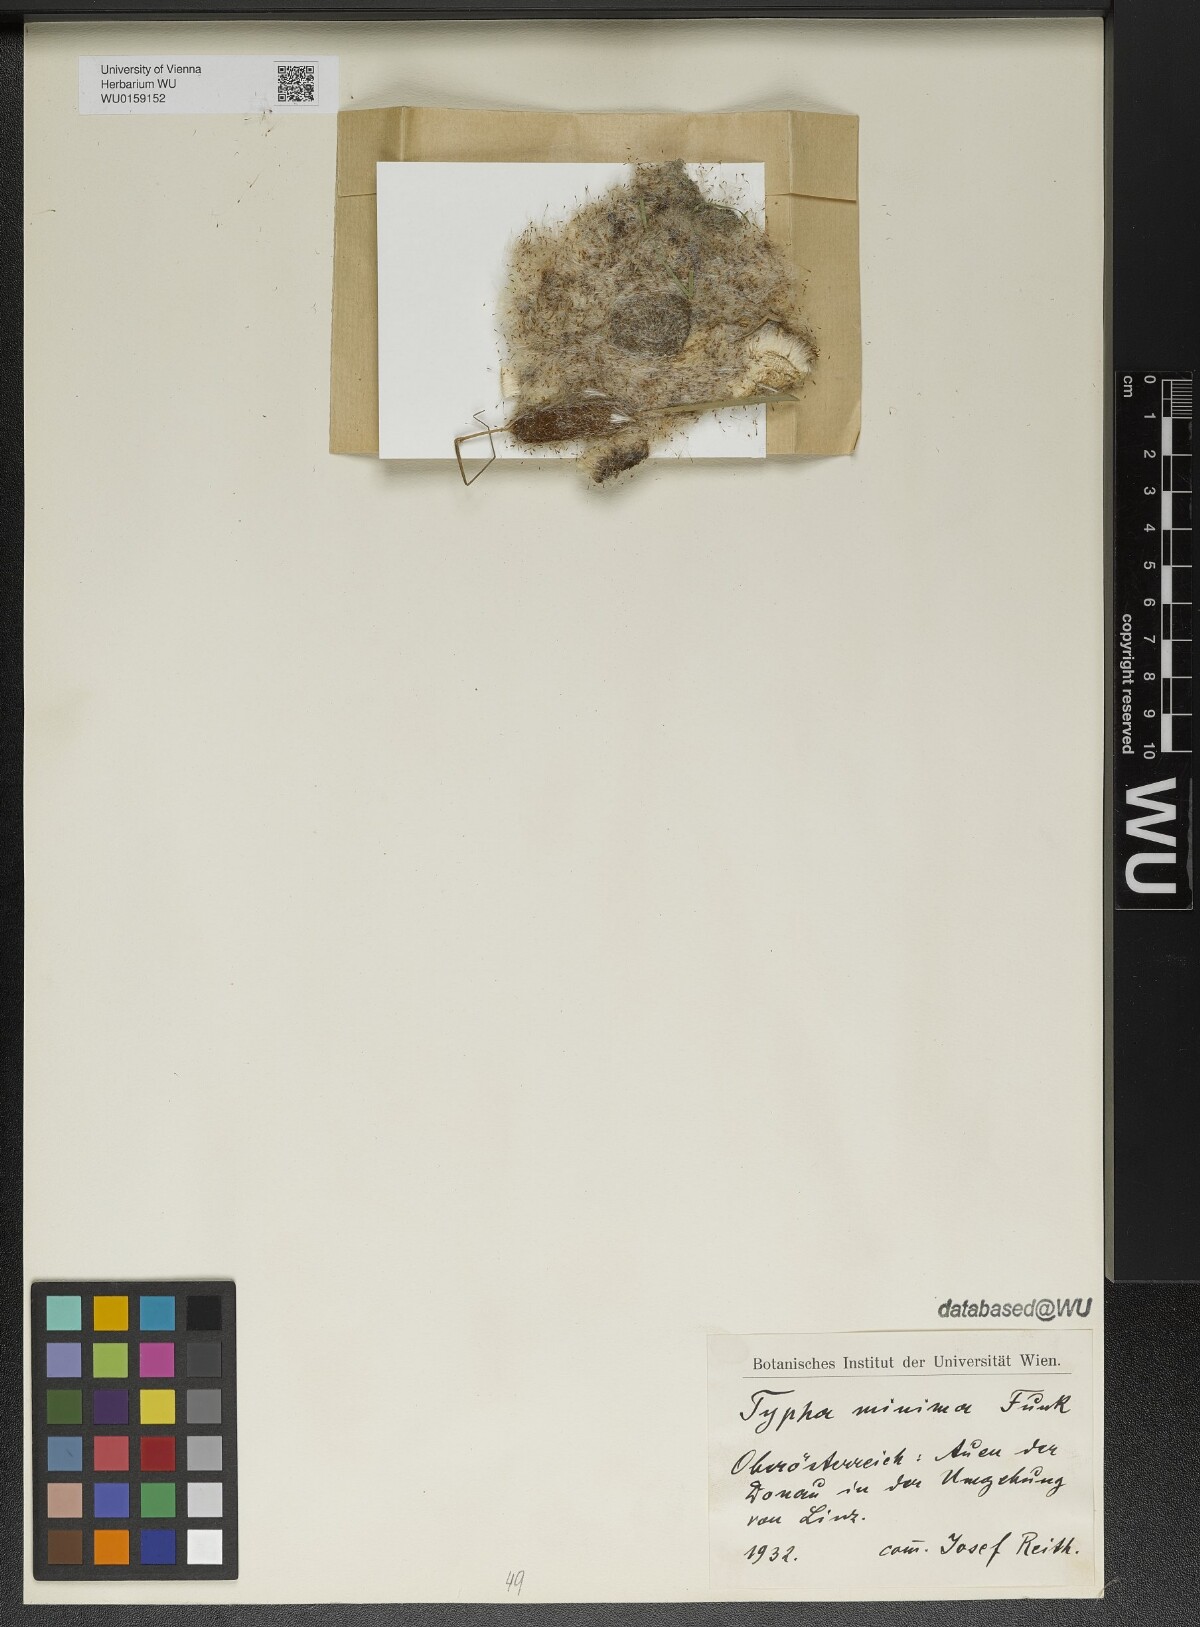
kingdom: Plantae
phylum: Tracheophyta
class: Liliopsida
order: Poales
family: Typhaceae
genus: Typha
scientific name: Typha minima
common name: Dwarf bulrush
